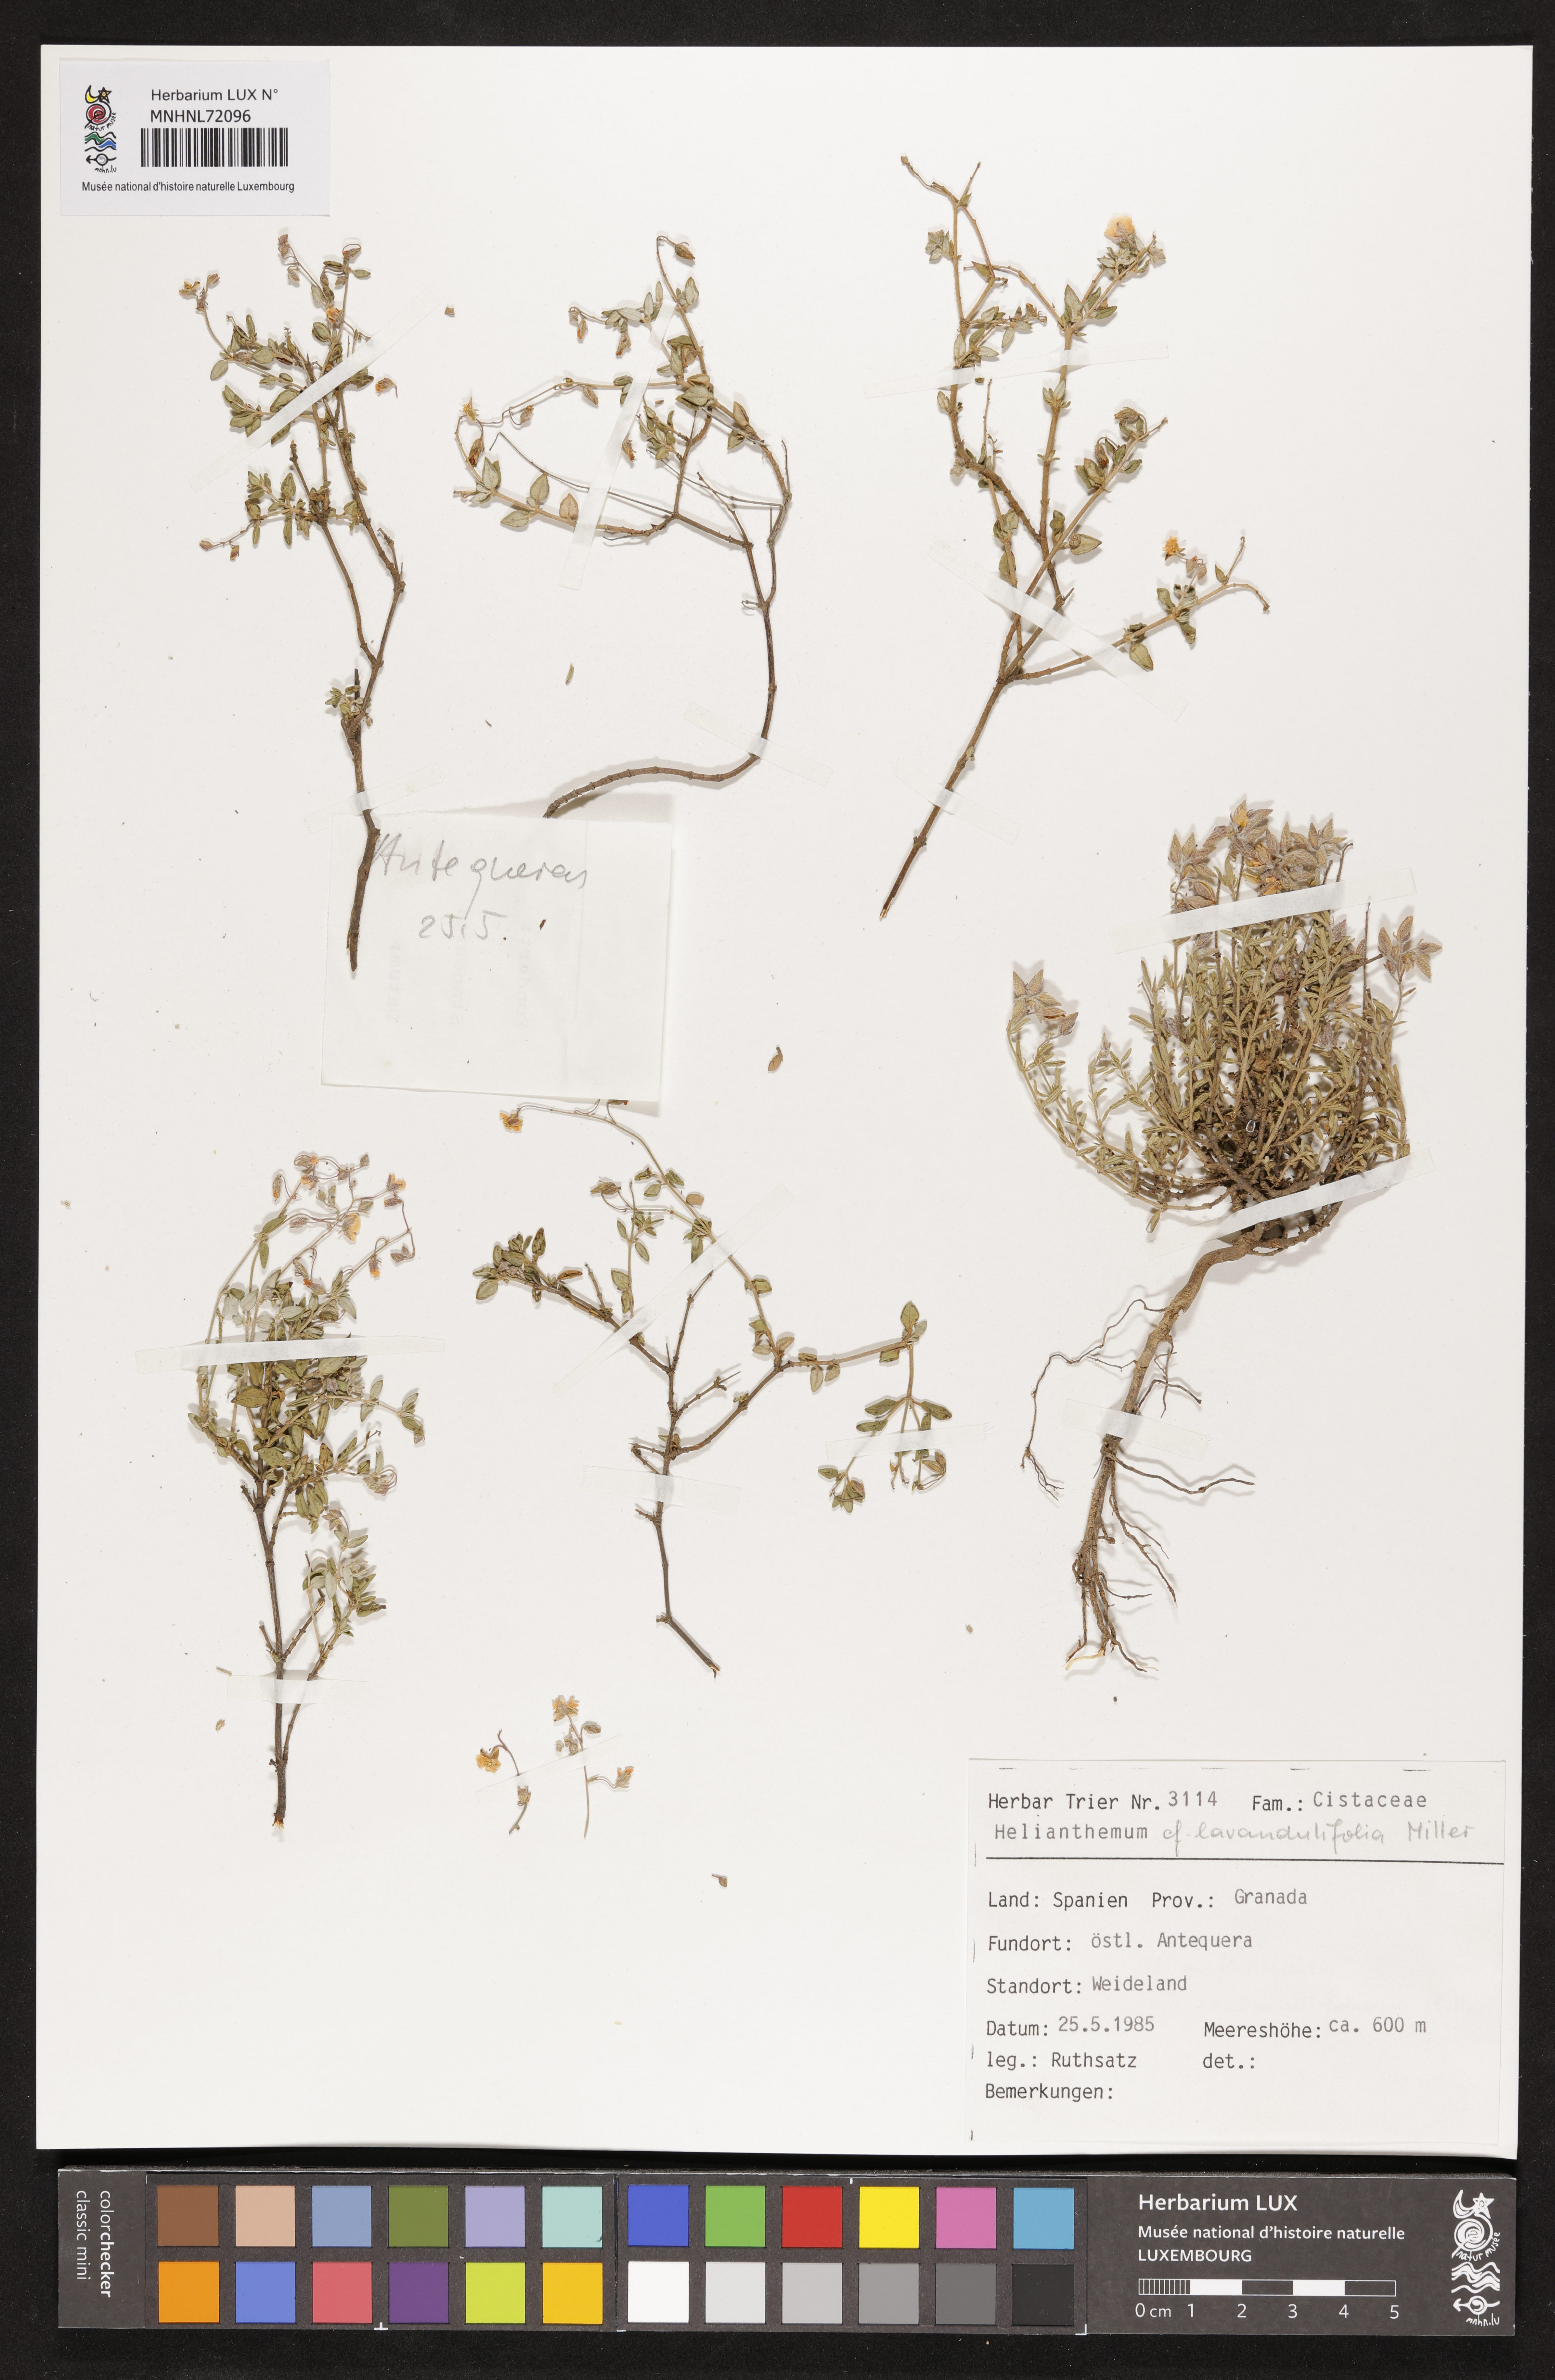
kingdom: Plantae
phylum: Tracheophyta
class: Magnoliopsida
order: Malvales
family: Cistaceae
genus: Helianthemum
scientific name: Helianthemum syriacum
